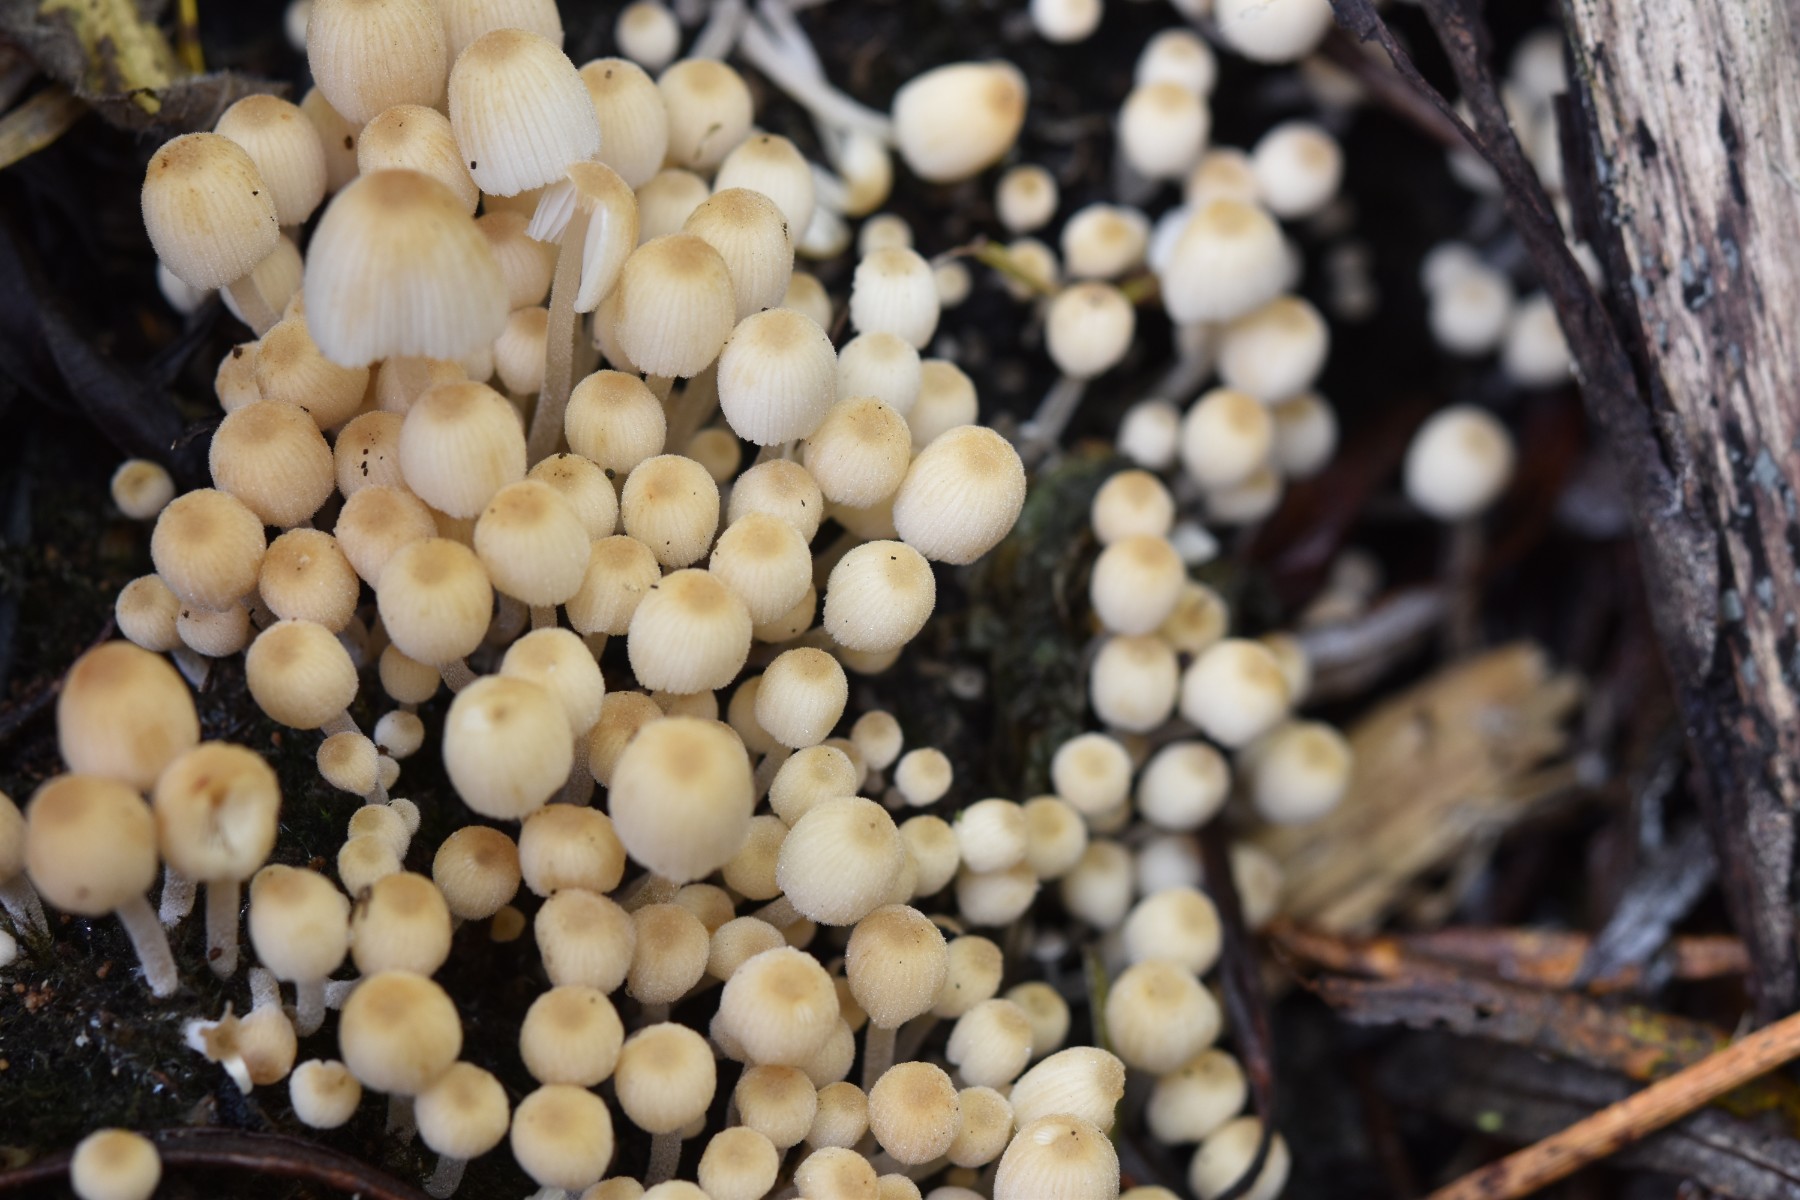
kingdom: Fungi
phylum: Basidiomycota
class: Agaricomycetes
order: Agaricales
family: Psathyrellaceae
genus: Coprinellus
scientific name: Coprinellus disseminatus
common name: bredsået blækhat
